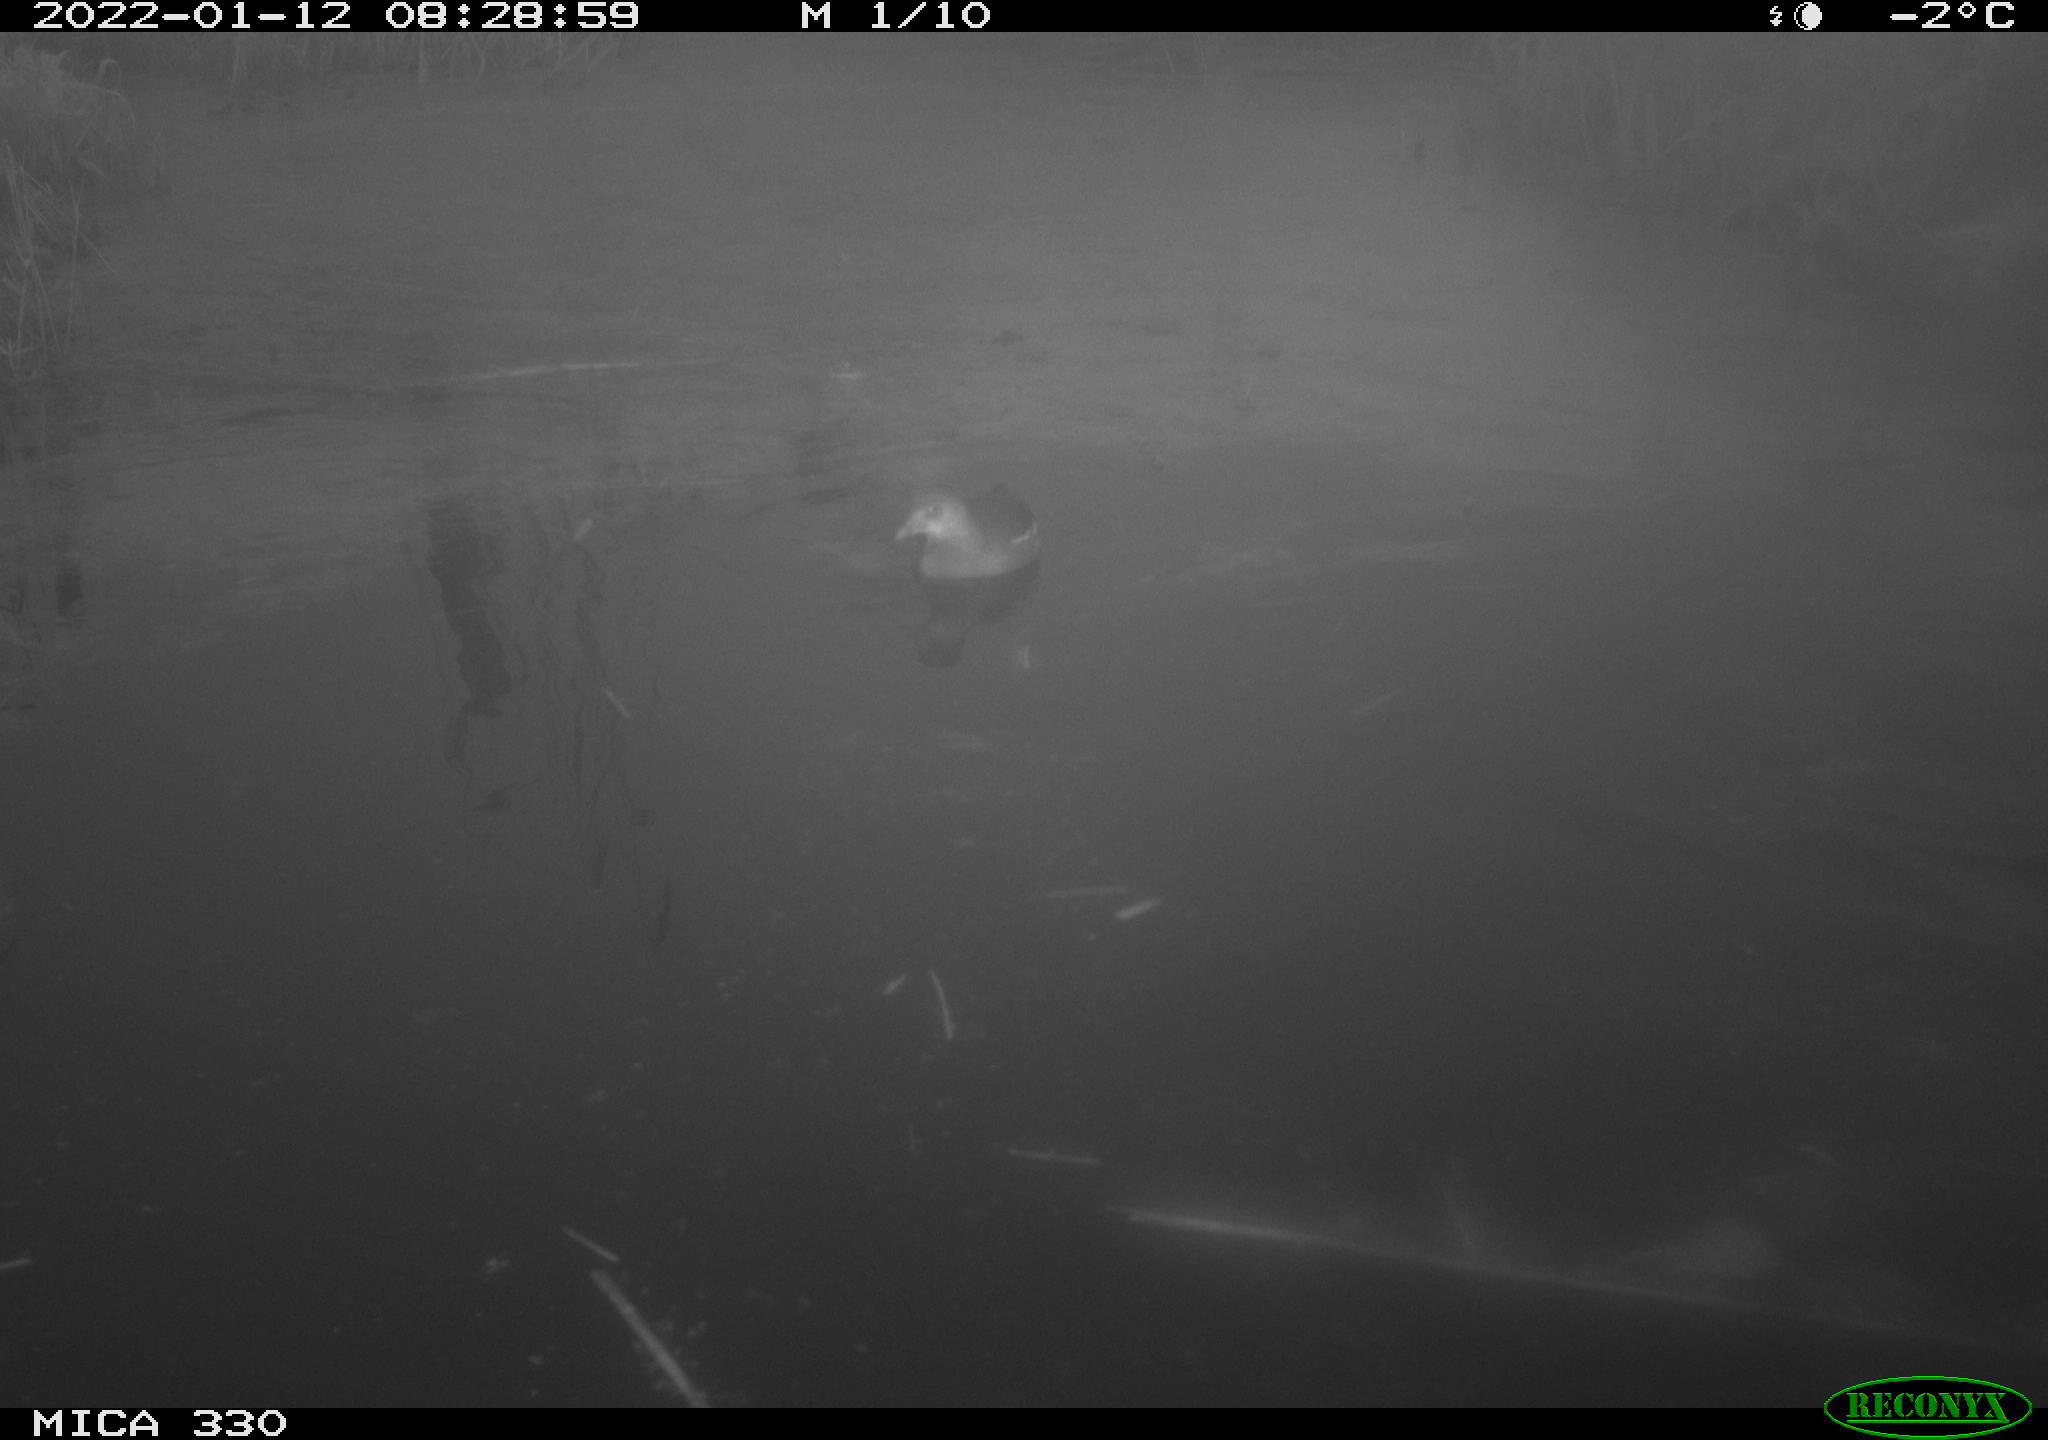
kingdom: Animalia
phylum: Chordata
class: Aves
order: Gruiformes
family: Rallidae
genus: Gallinula
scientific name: Gallinula chloropus
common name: Common moorhen
